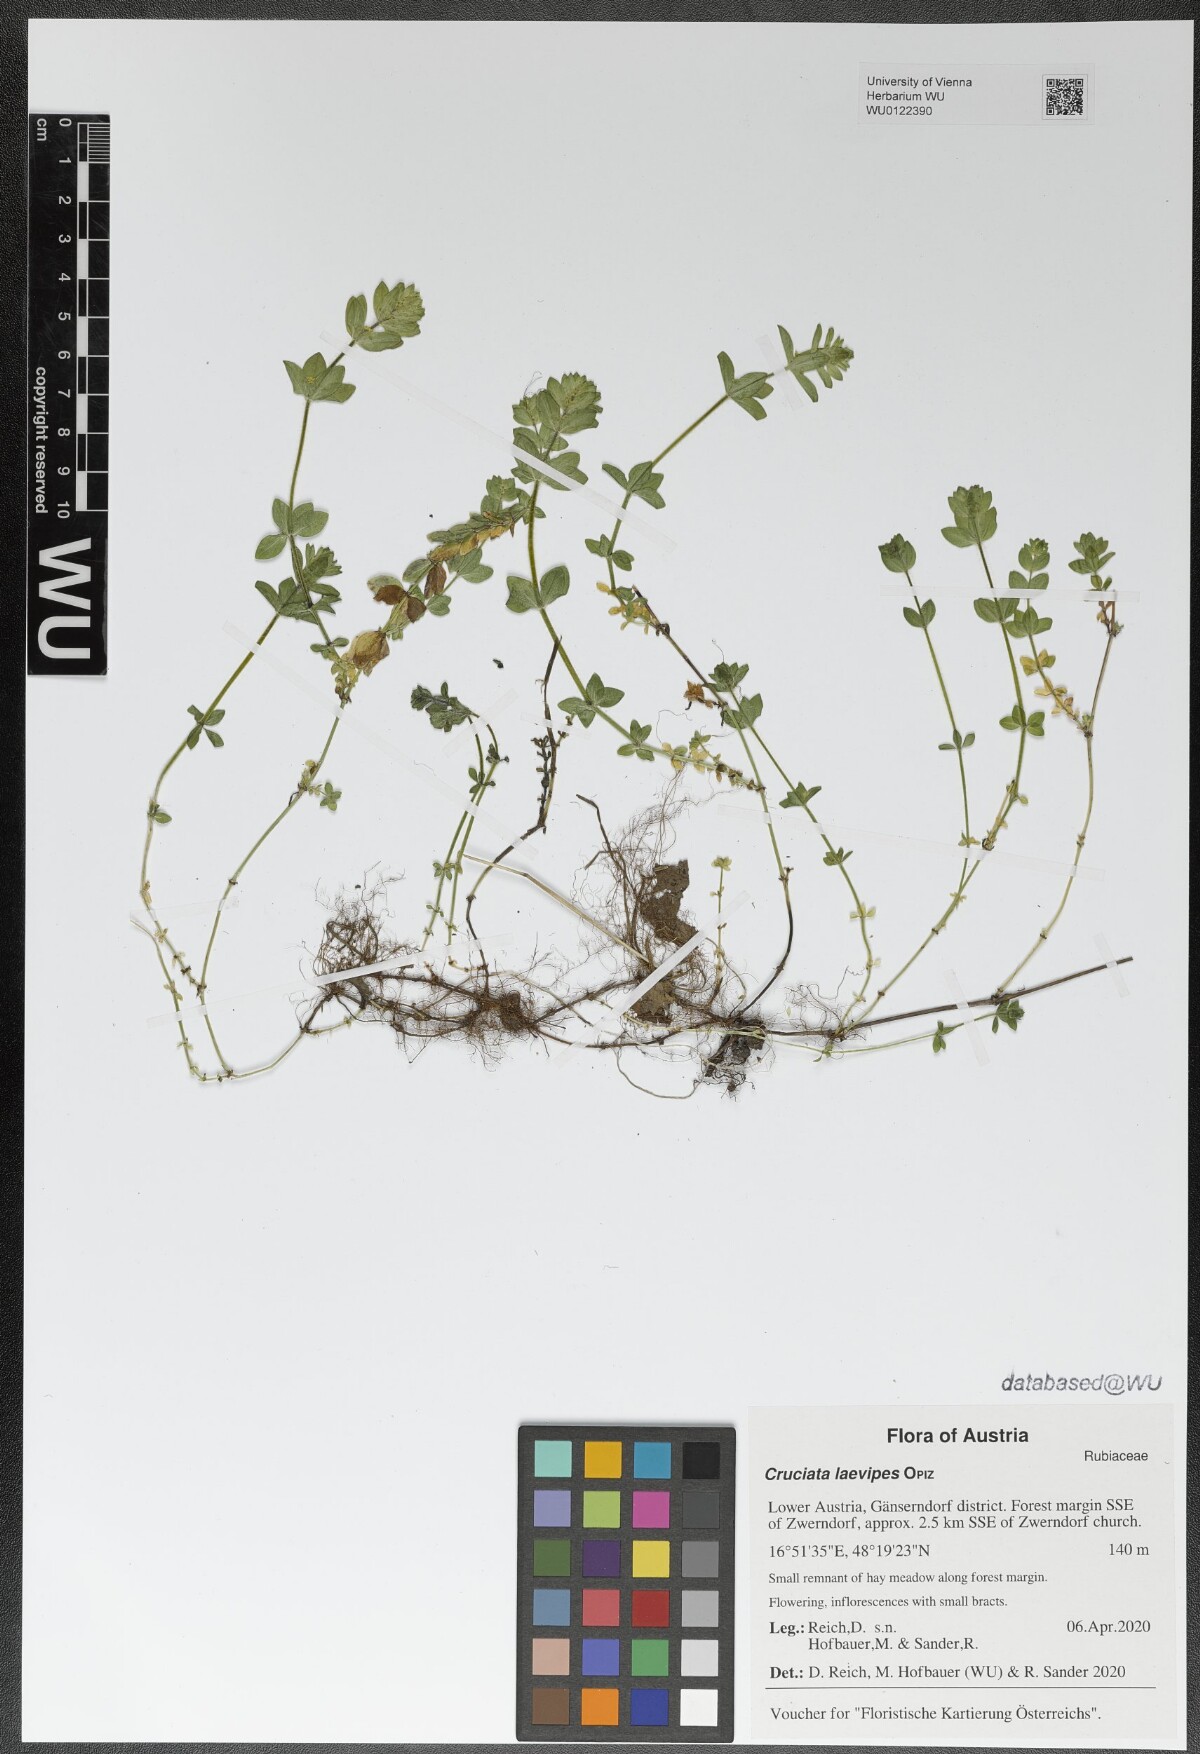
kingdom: Plantae
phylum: Tracheophyta
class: Magnoliopsida
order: Gentianales
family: Rubiaceae
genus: Cruciata
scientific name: Cruciata laevipes
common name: Crosswort
